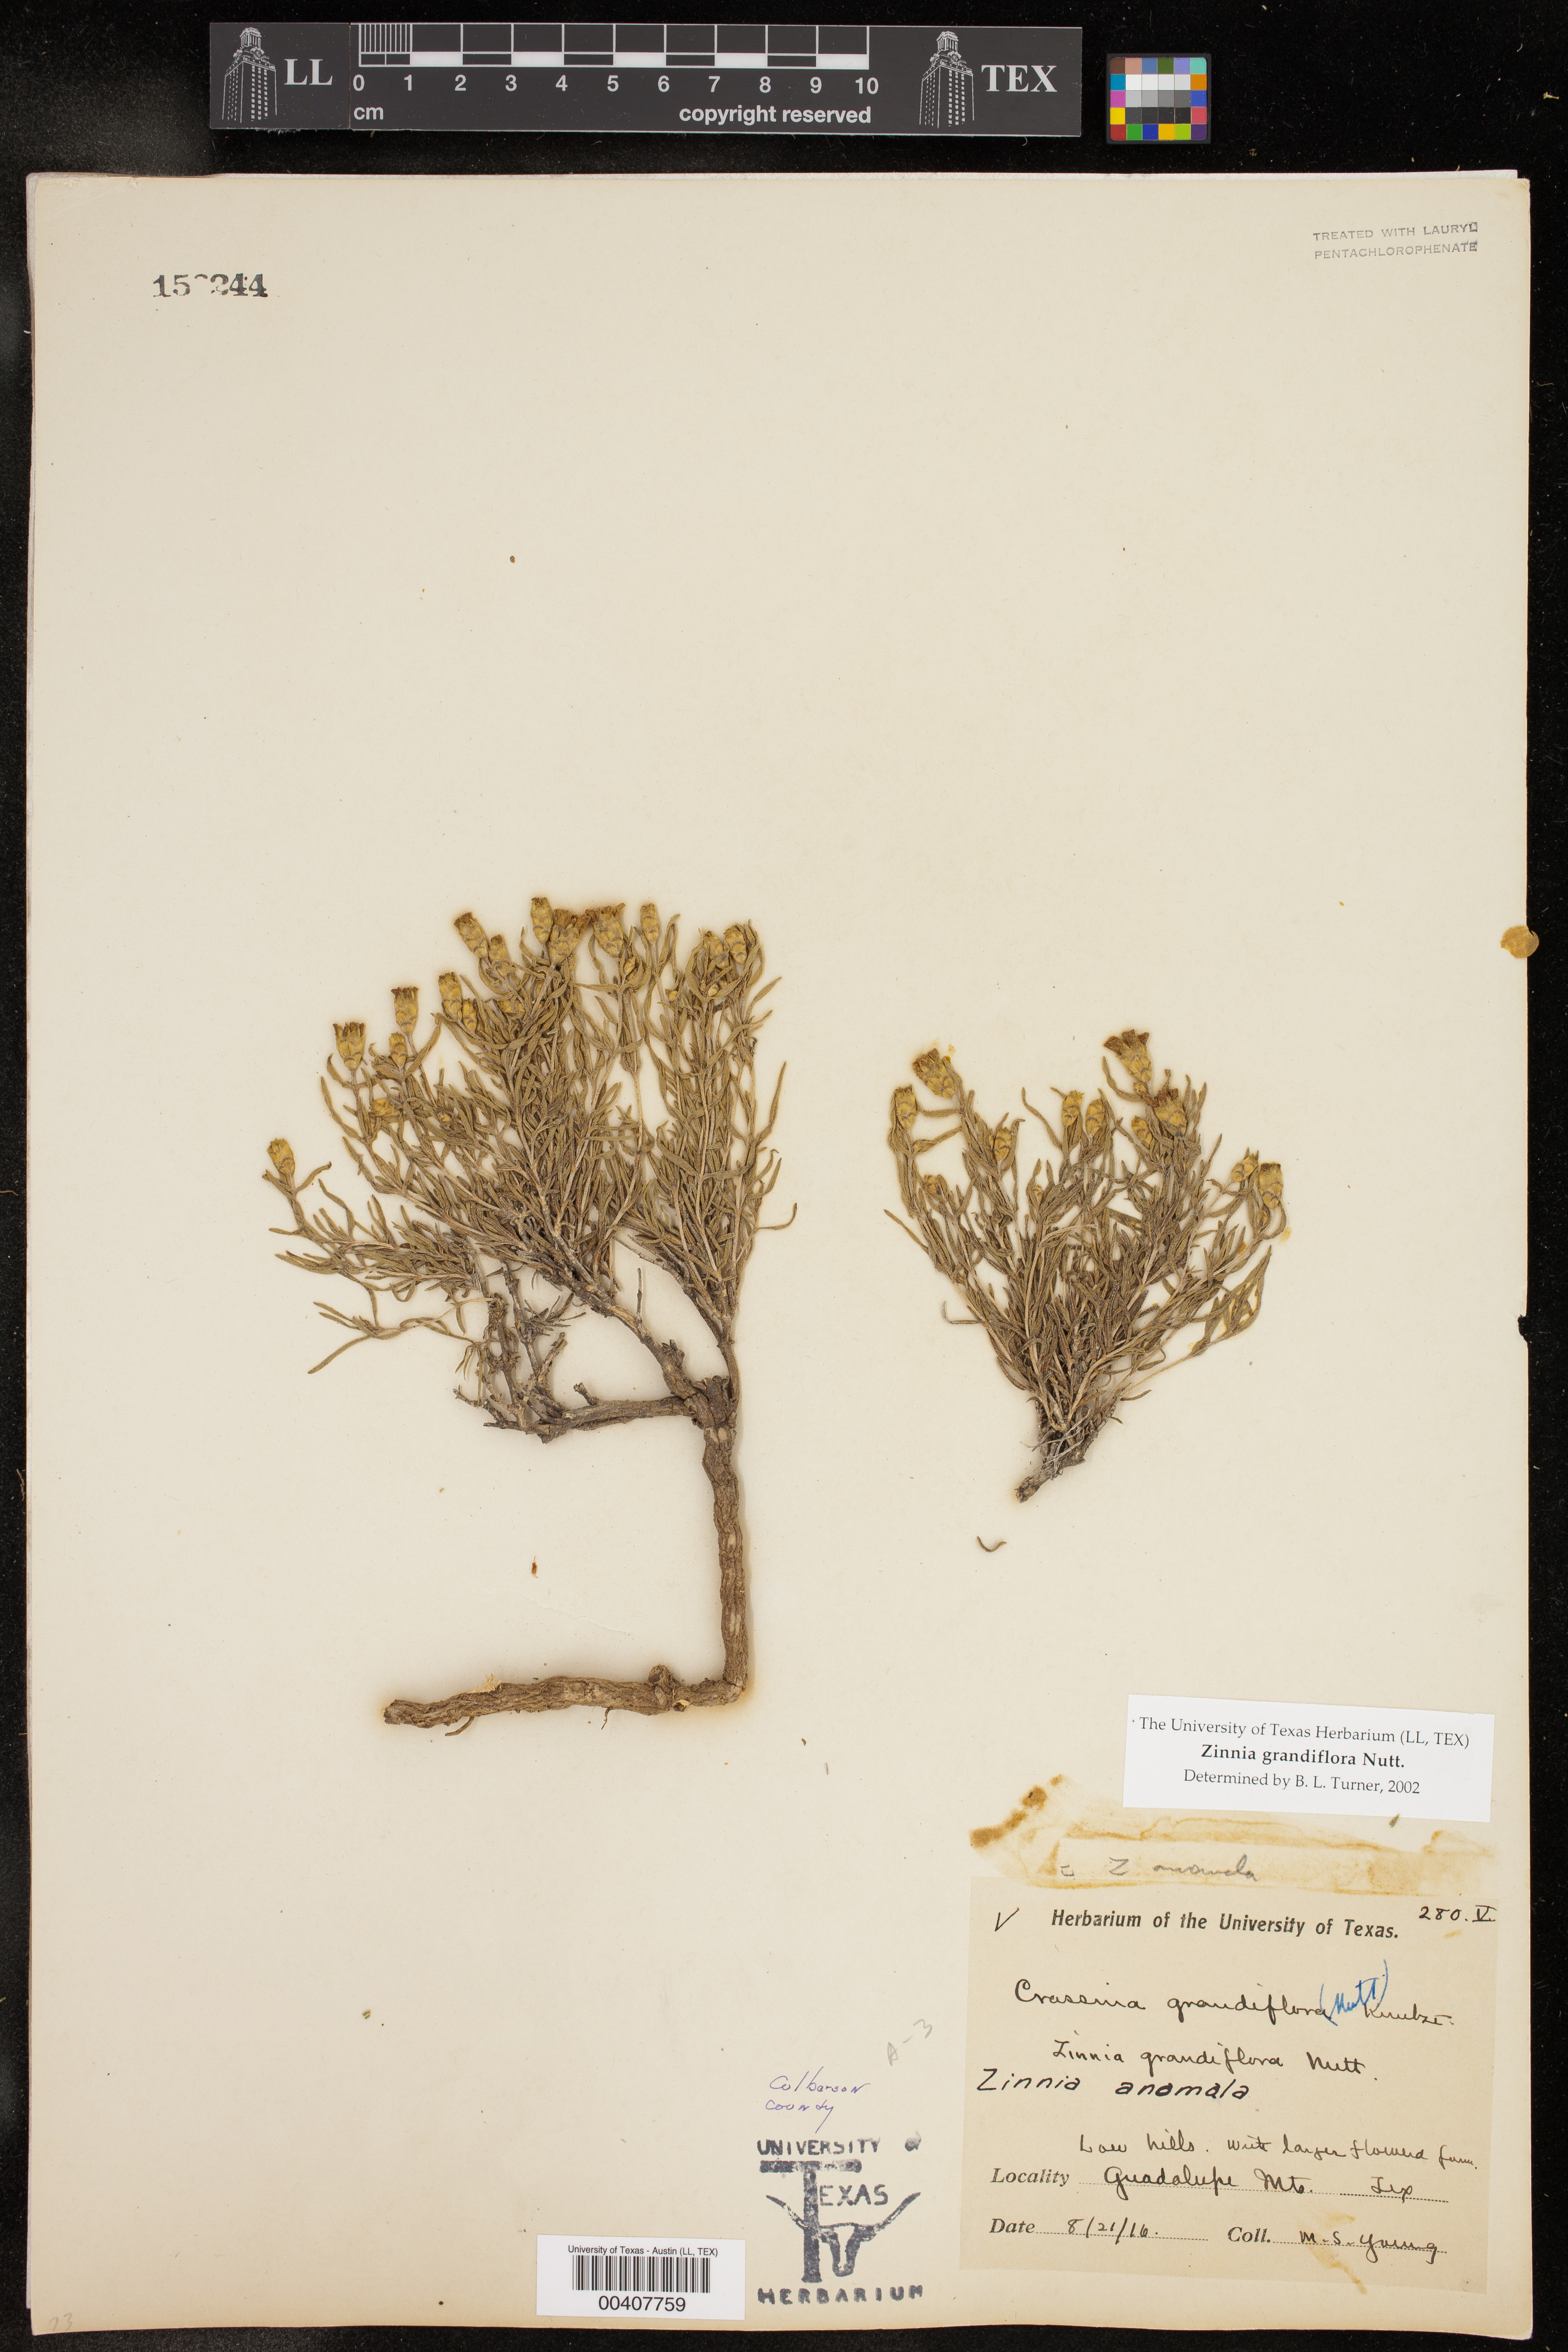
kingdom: Plantae
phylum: Tracheophyta
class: Magnoliopsida
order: Asterales
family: Asteraceae
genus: Zinnia
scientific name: Zinnia grandiflora
